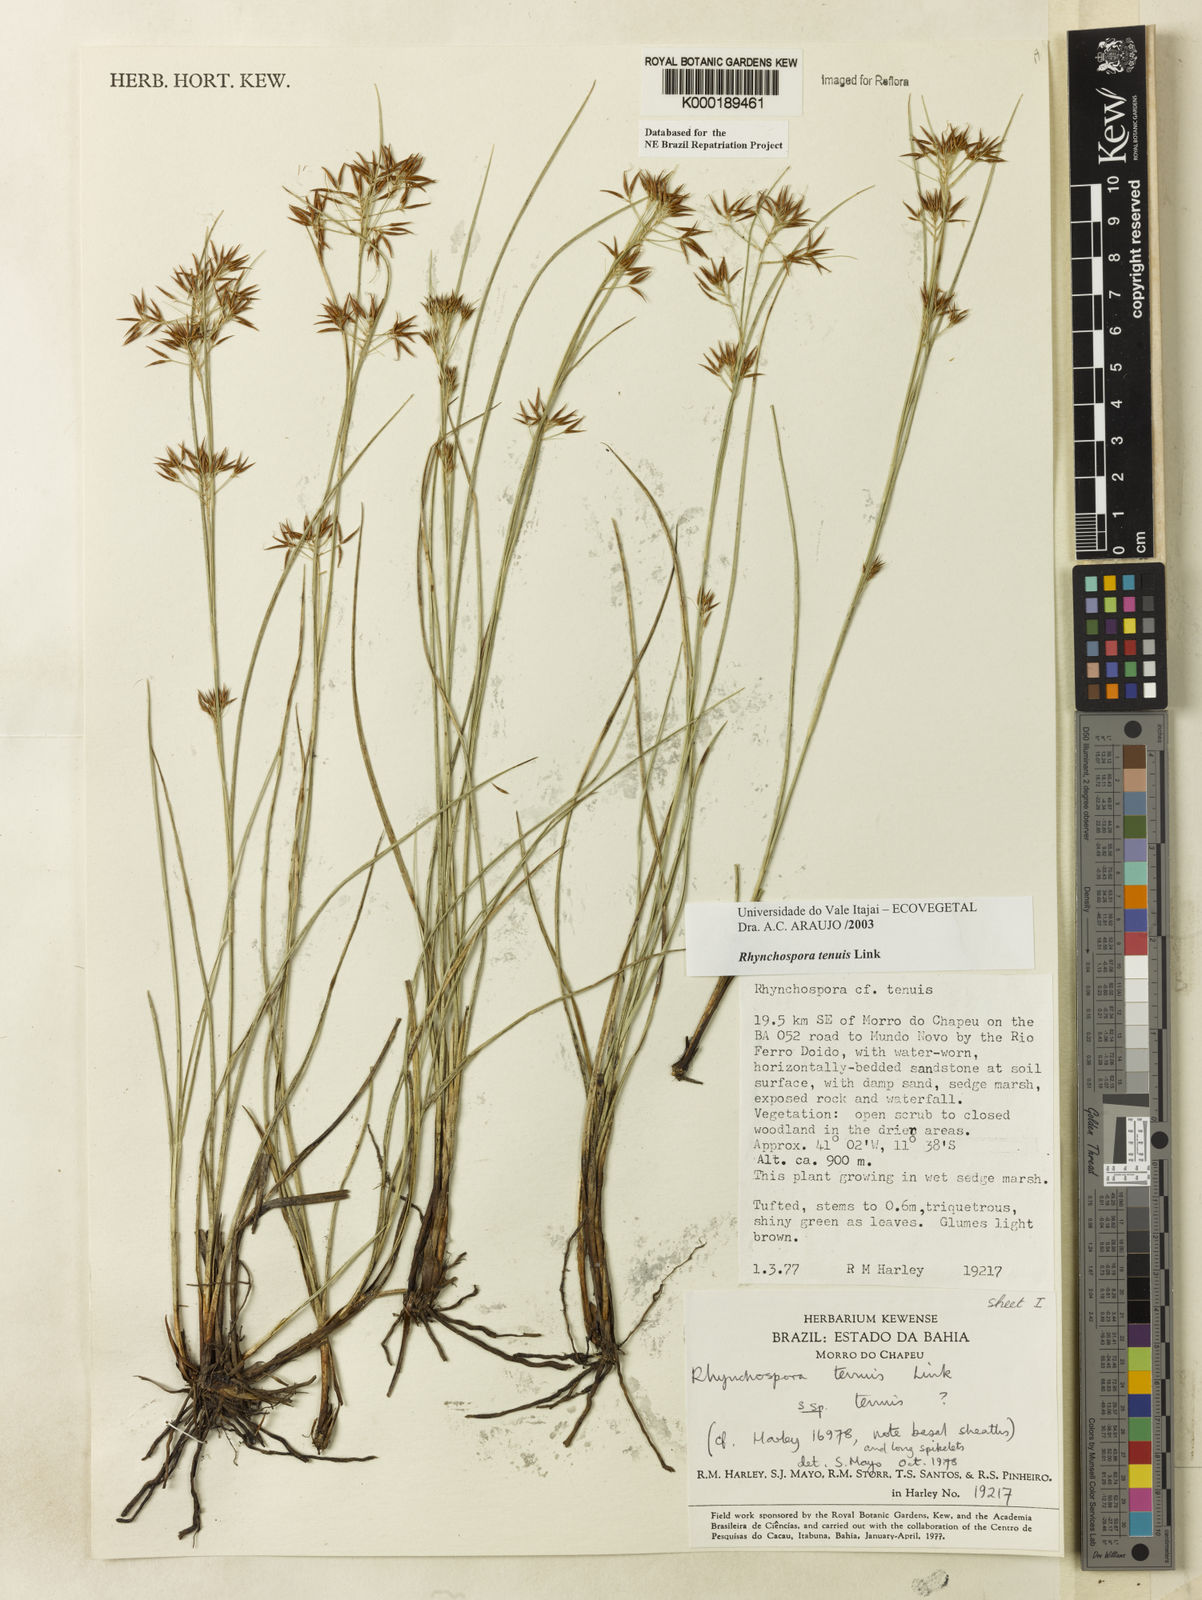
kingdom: Plantae
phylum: Tracheophyta
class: Liliopsida
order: Poales
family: Cyperaceae
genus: Rhynchospora
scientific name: Rhynchospora tenuis
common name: Quill beaksedge
